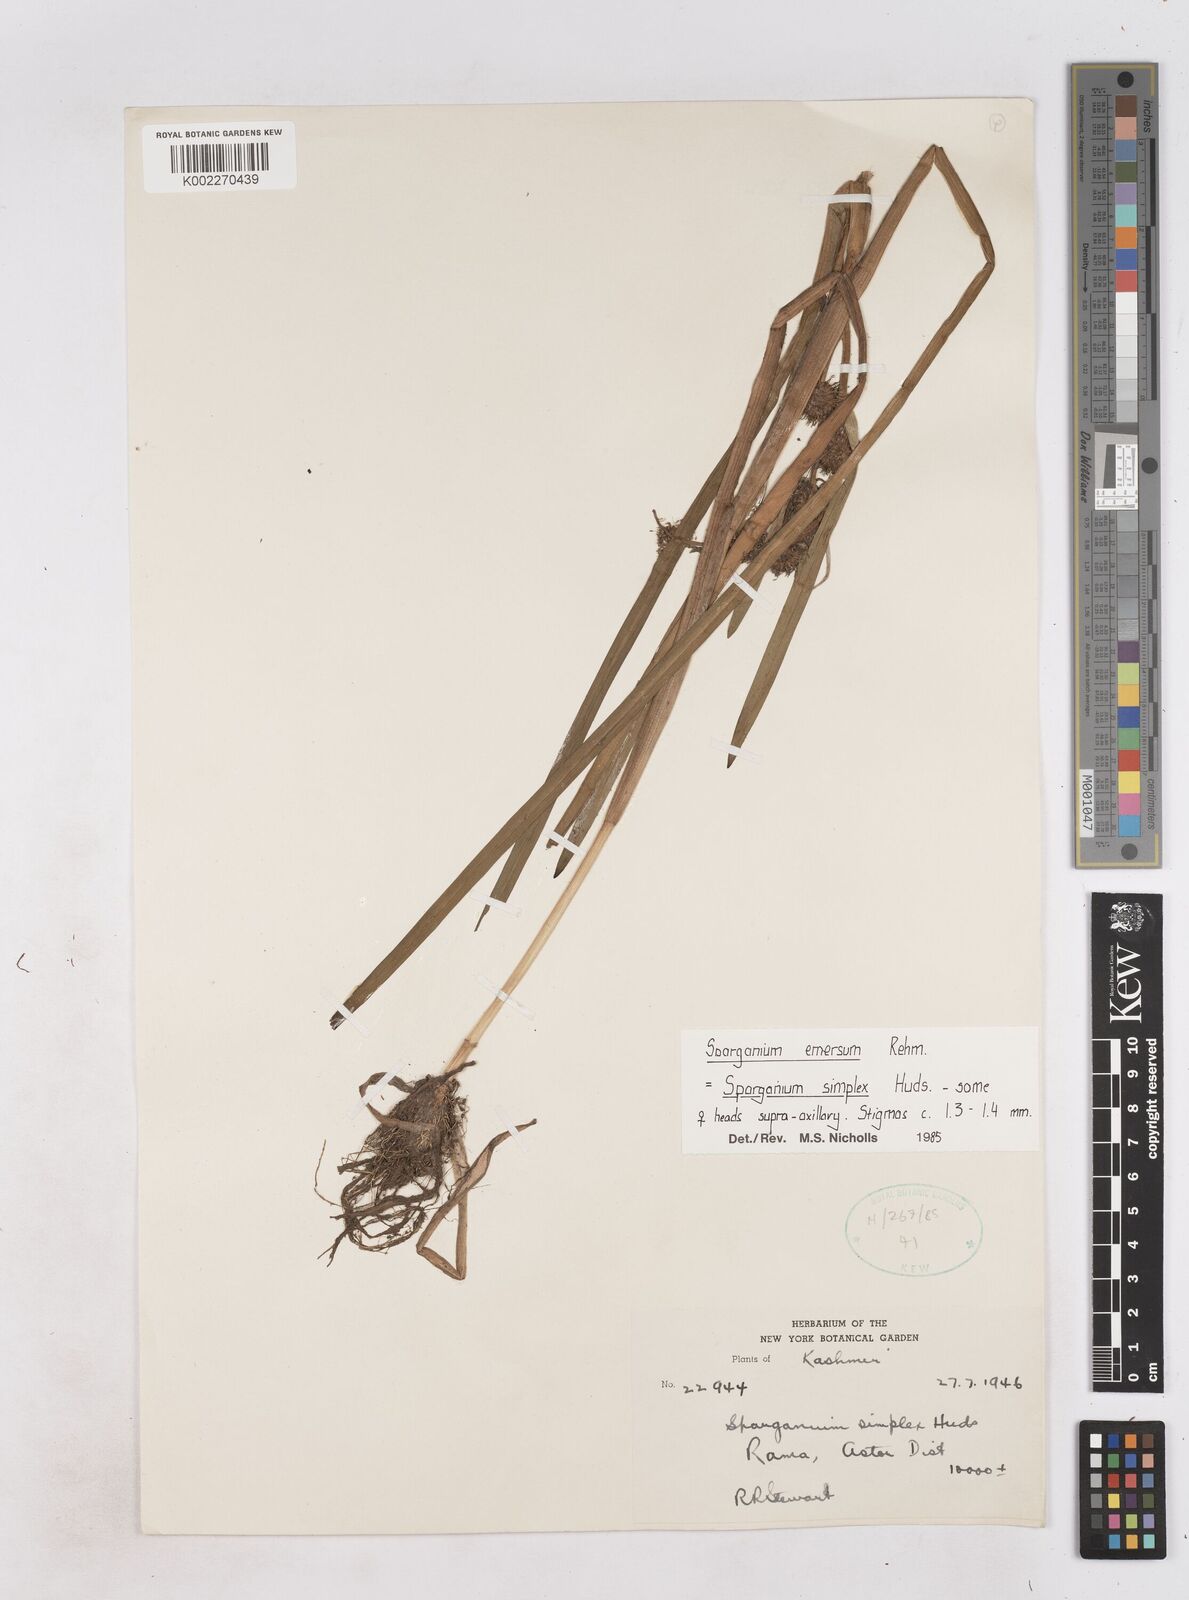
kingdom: Plantae
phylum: Tracheophyta
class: Liliopsida
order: Poales
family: Typhaceae
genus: Sparganium
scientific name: Sparganium emersum
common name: Unbranched bur-reed
